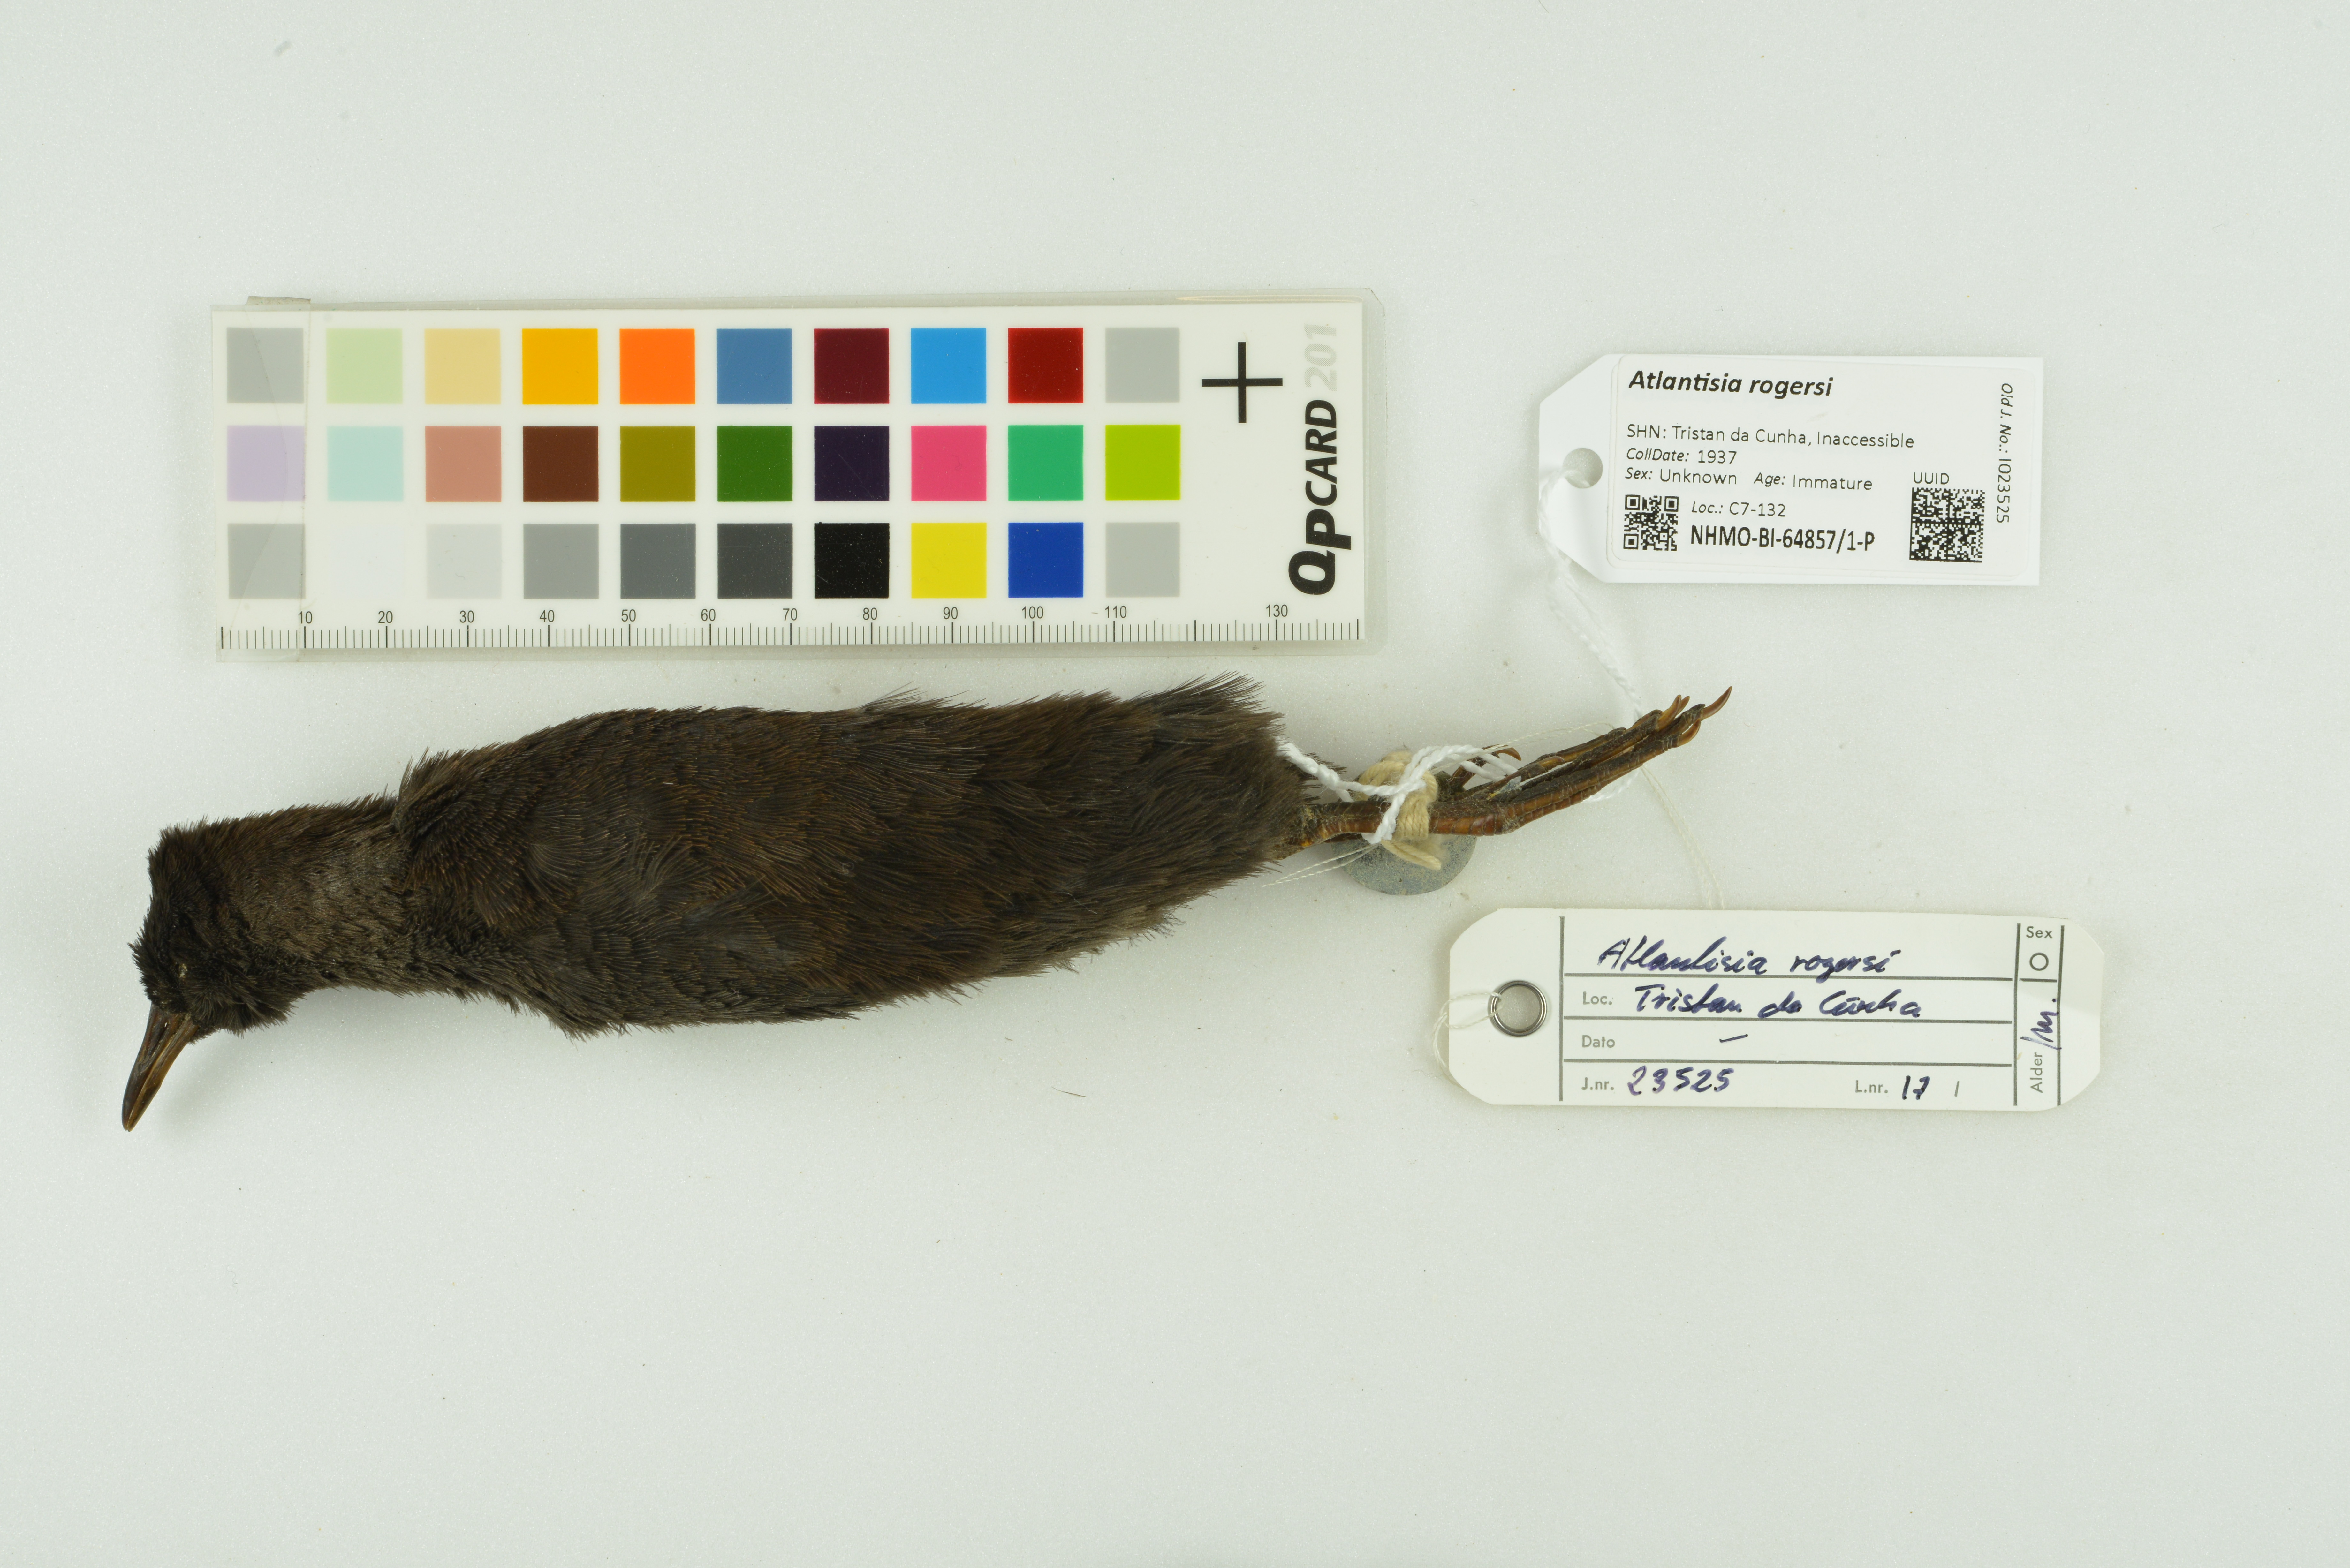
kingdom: Animalia
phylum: Chordata
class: Aves
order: Gruiformes
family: Rallidae
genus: Atlantisia
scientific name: Atlantisia rogersi
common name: Inaccessible island rail
